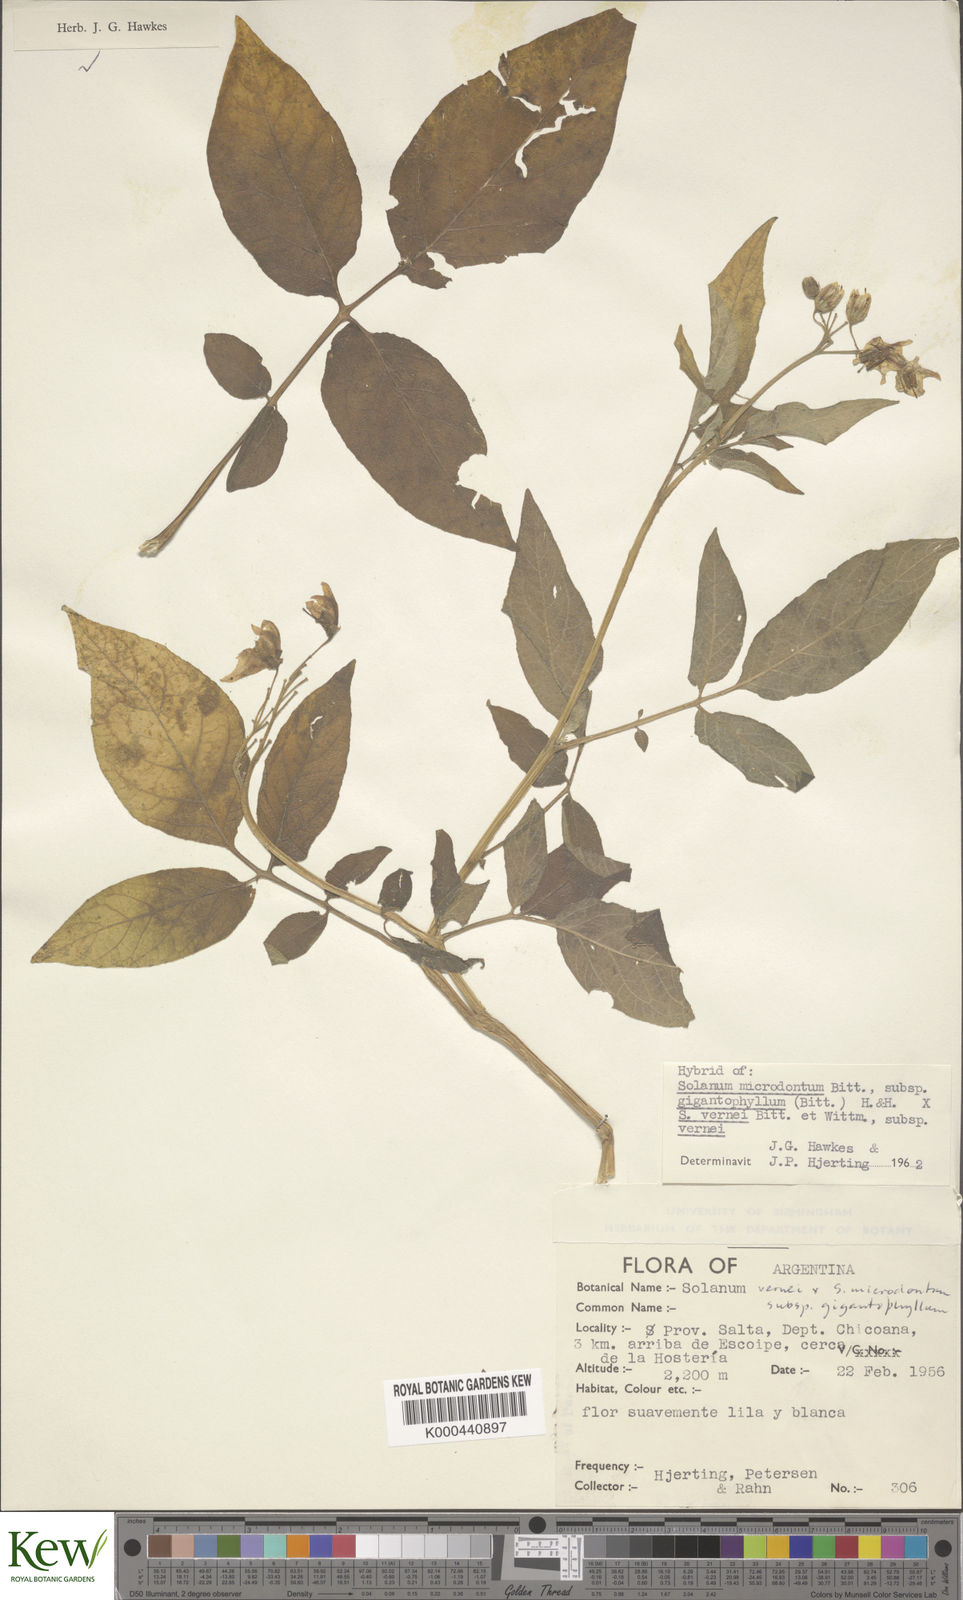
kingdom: Plantae
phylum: Tracheophyta
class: Magnoliopsida
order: Solanales
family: Solanaceae
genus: Solanum
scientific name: Solanum microdontum
